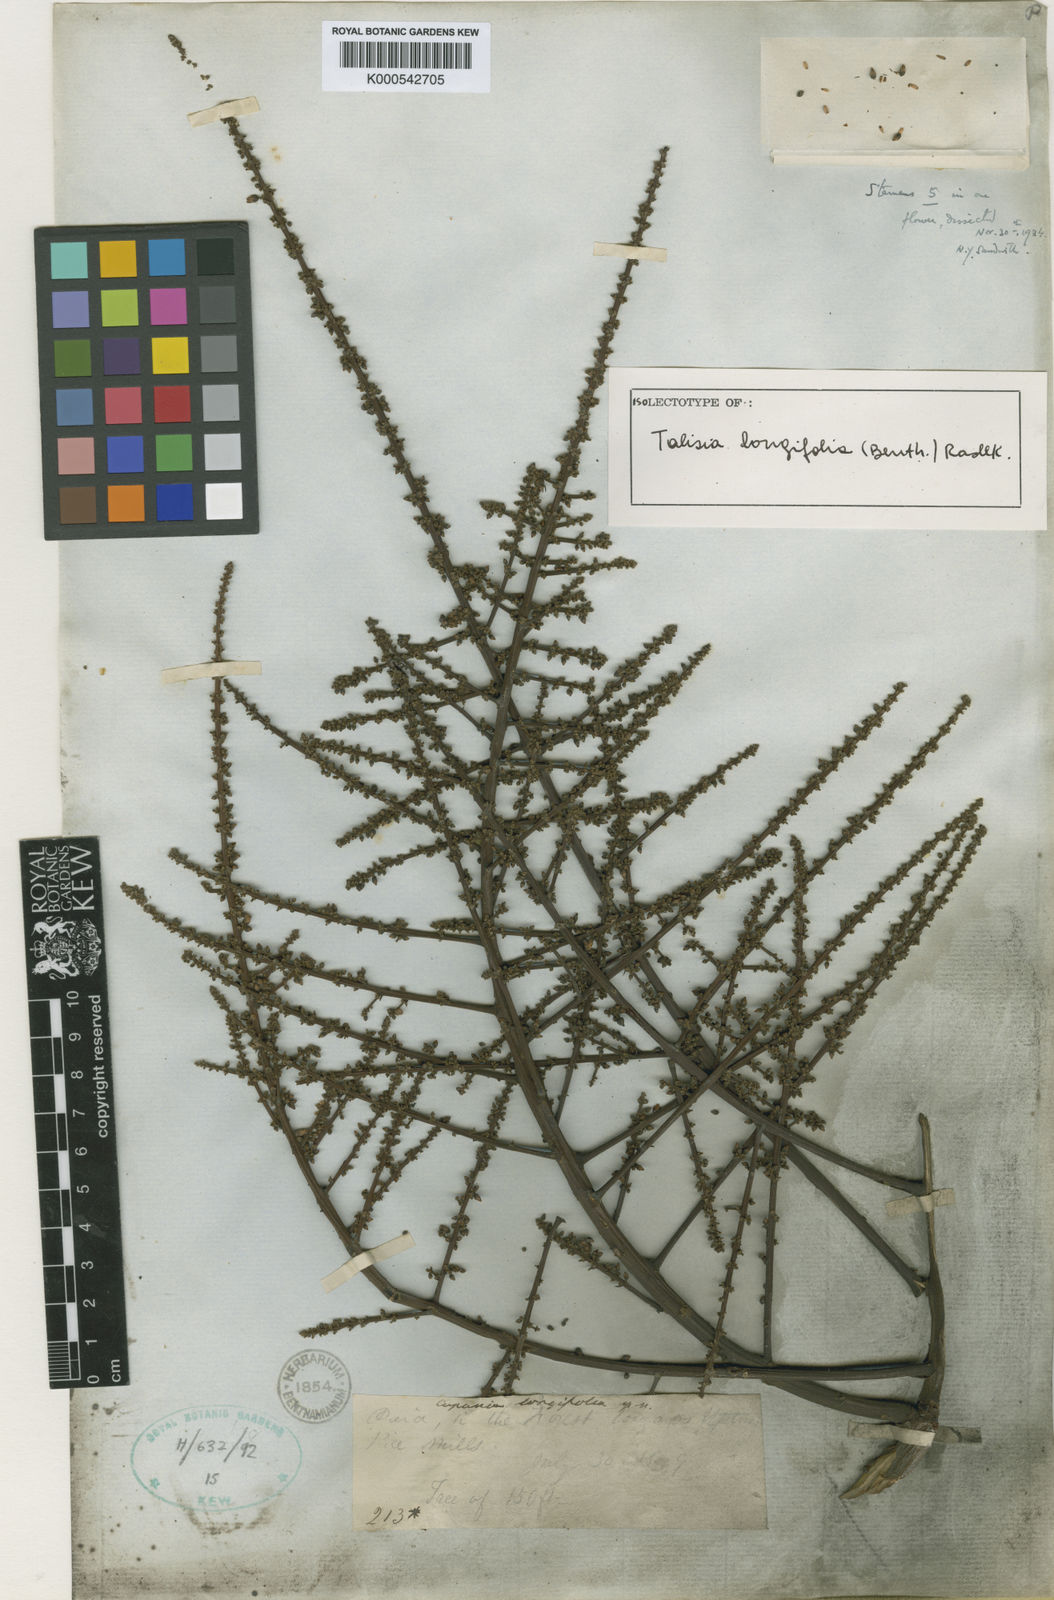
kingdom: Plantae
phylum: Tracheophyta
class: Magnoliopsida
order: Sapindales
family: Sapindaceae
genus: Talisia
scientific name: Talisia longifolia
